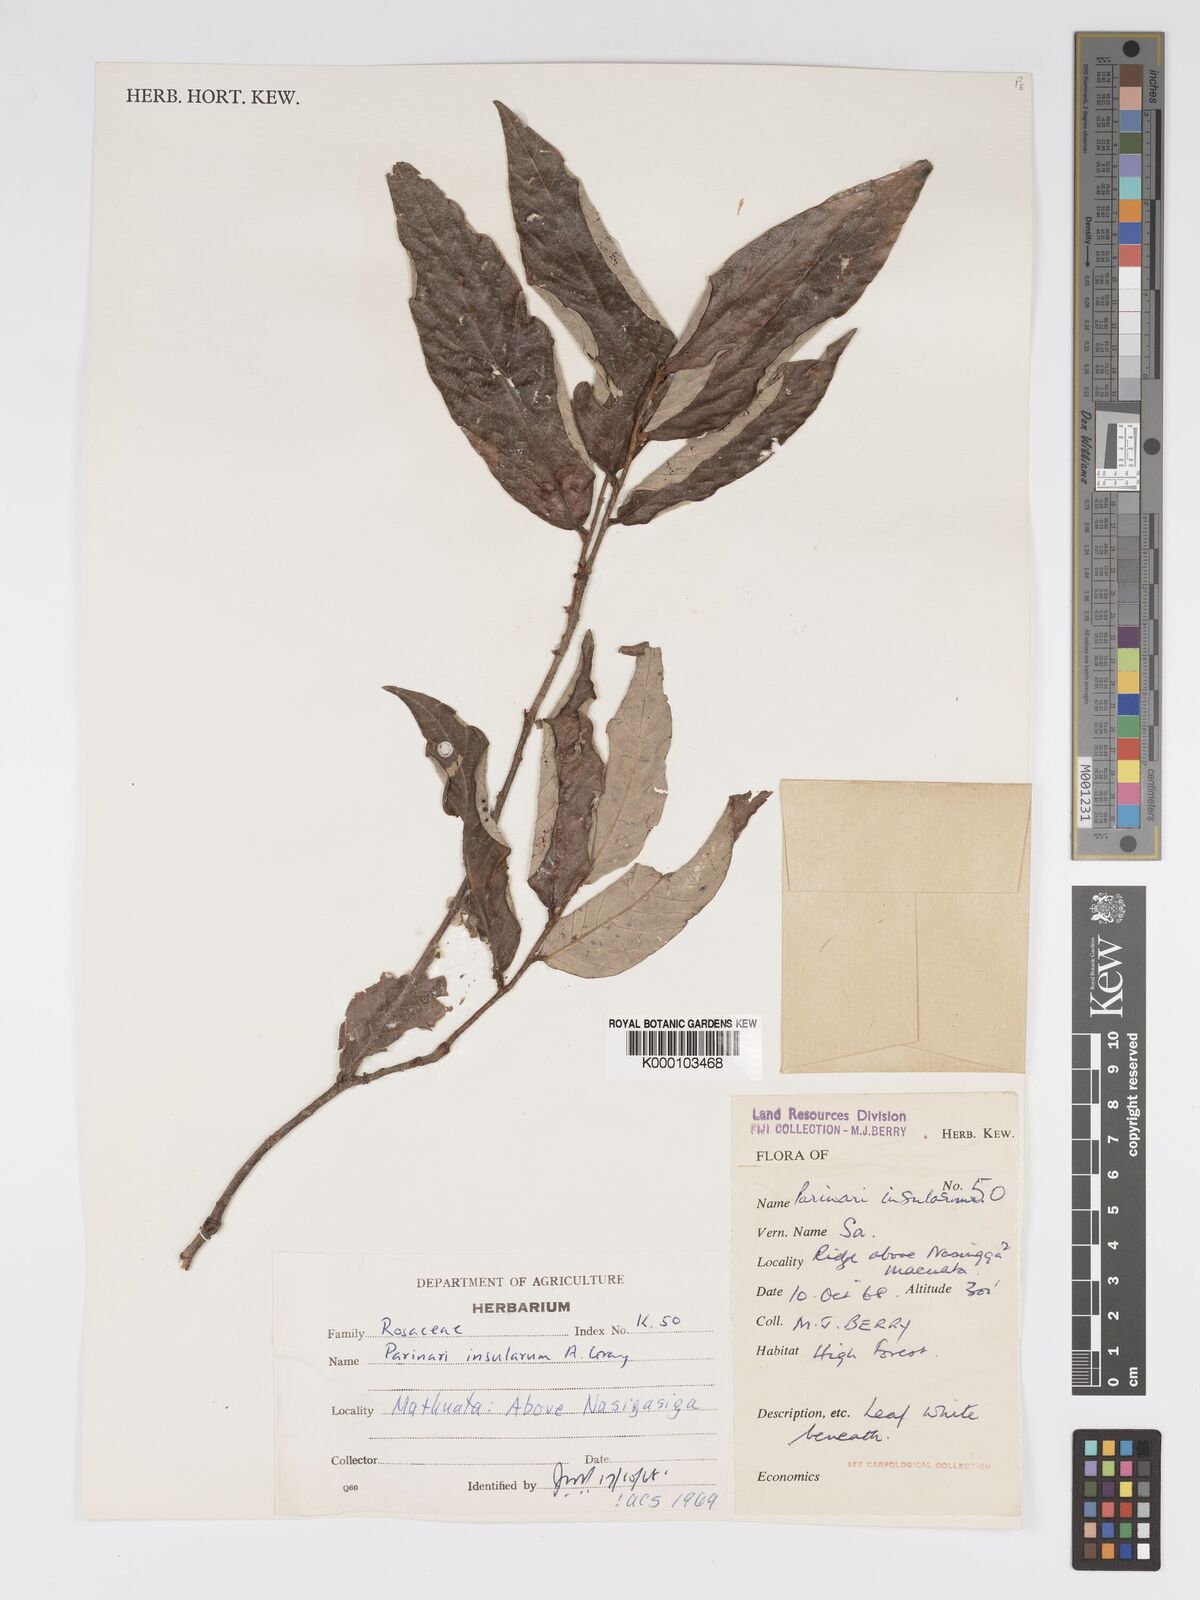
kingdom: Plantae
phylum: Tracheophyta
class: Magnoliopsida
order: Malpighiales
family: Chrysobalanaceae
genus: Parinari
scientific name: Parinari insularum
